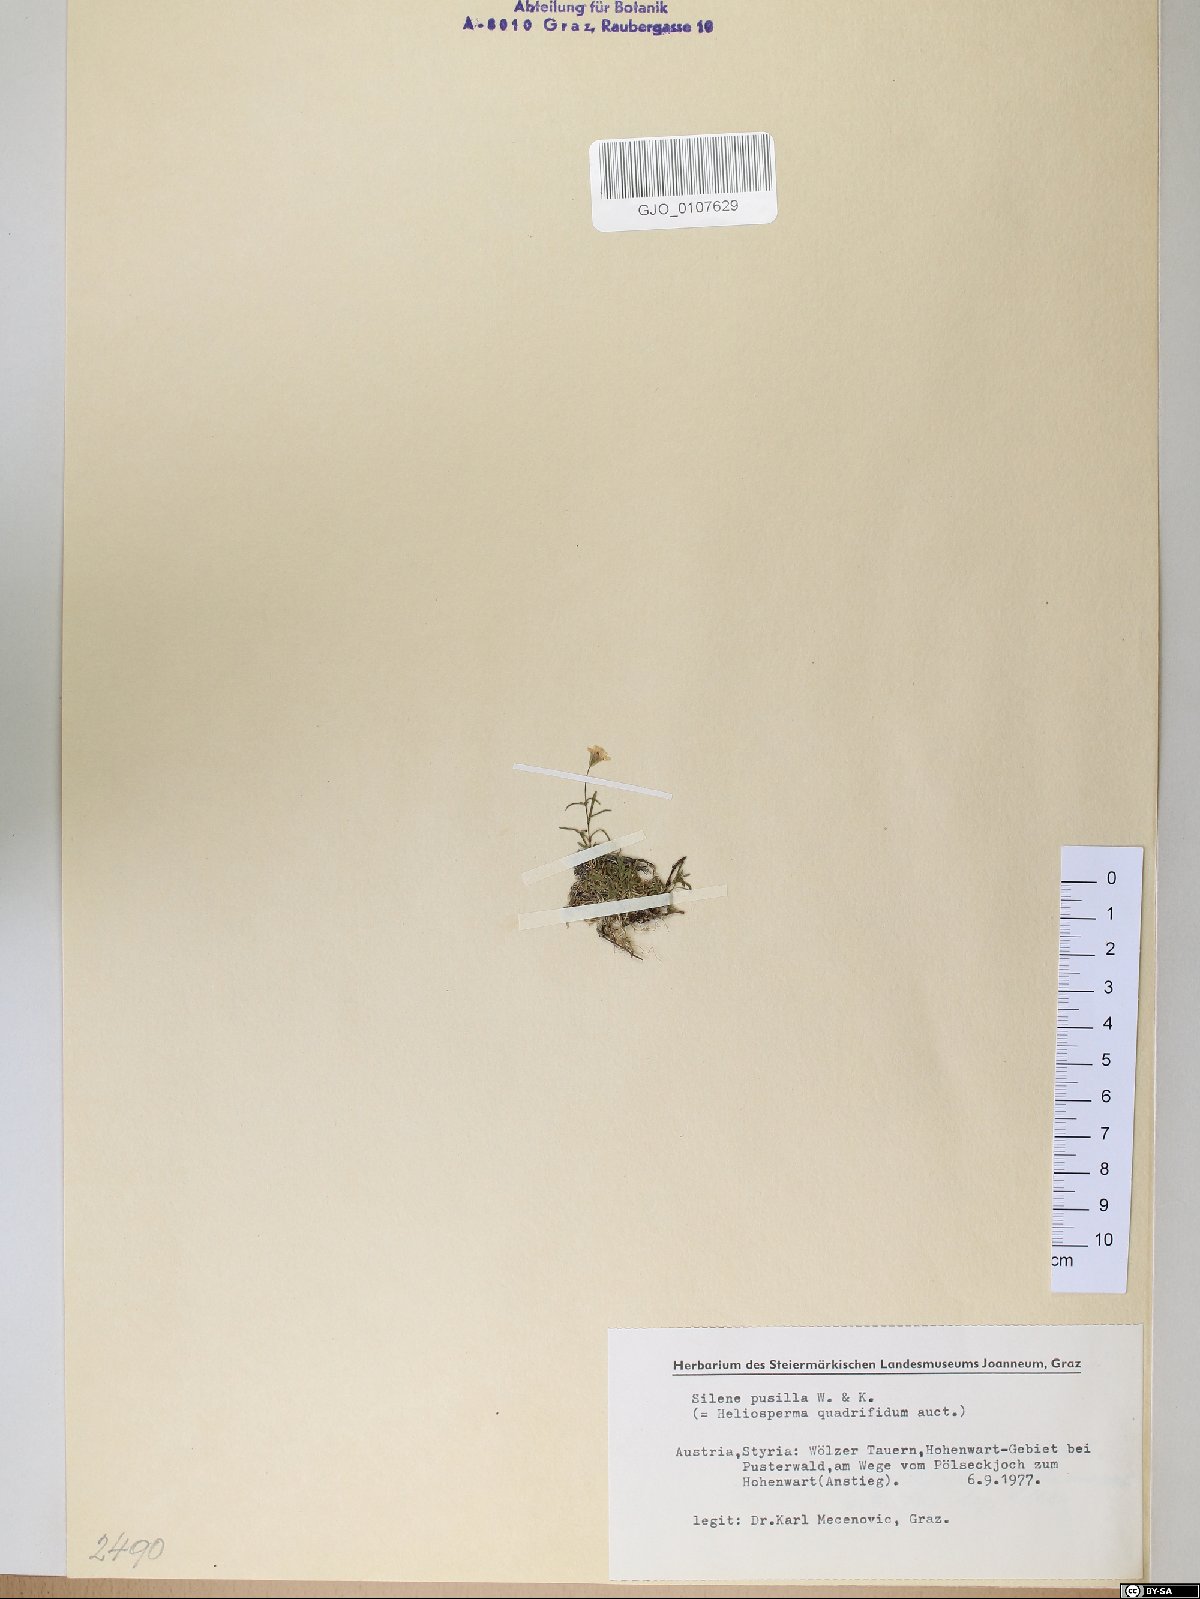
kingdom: Plantae
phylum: Tracheophyta
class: Magnoliopsida
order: Caryophyllales
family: Caryophyllaceae
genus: Heliosperma
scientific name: Heliosperma pusillum
